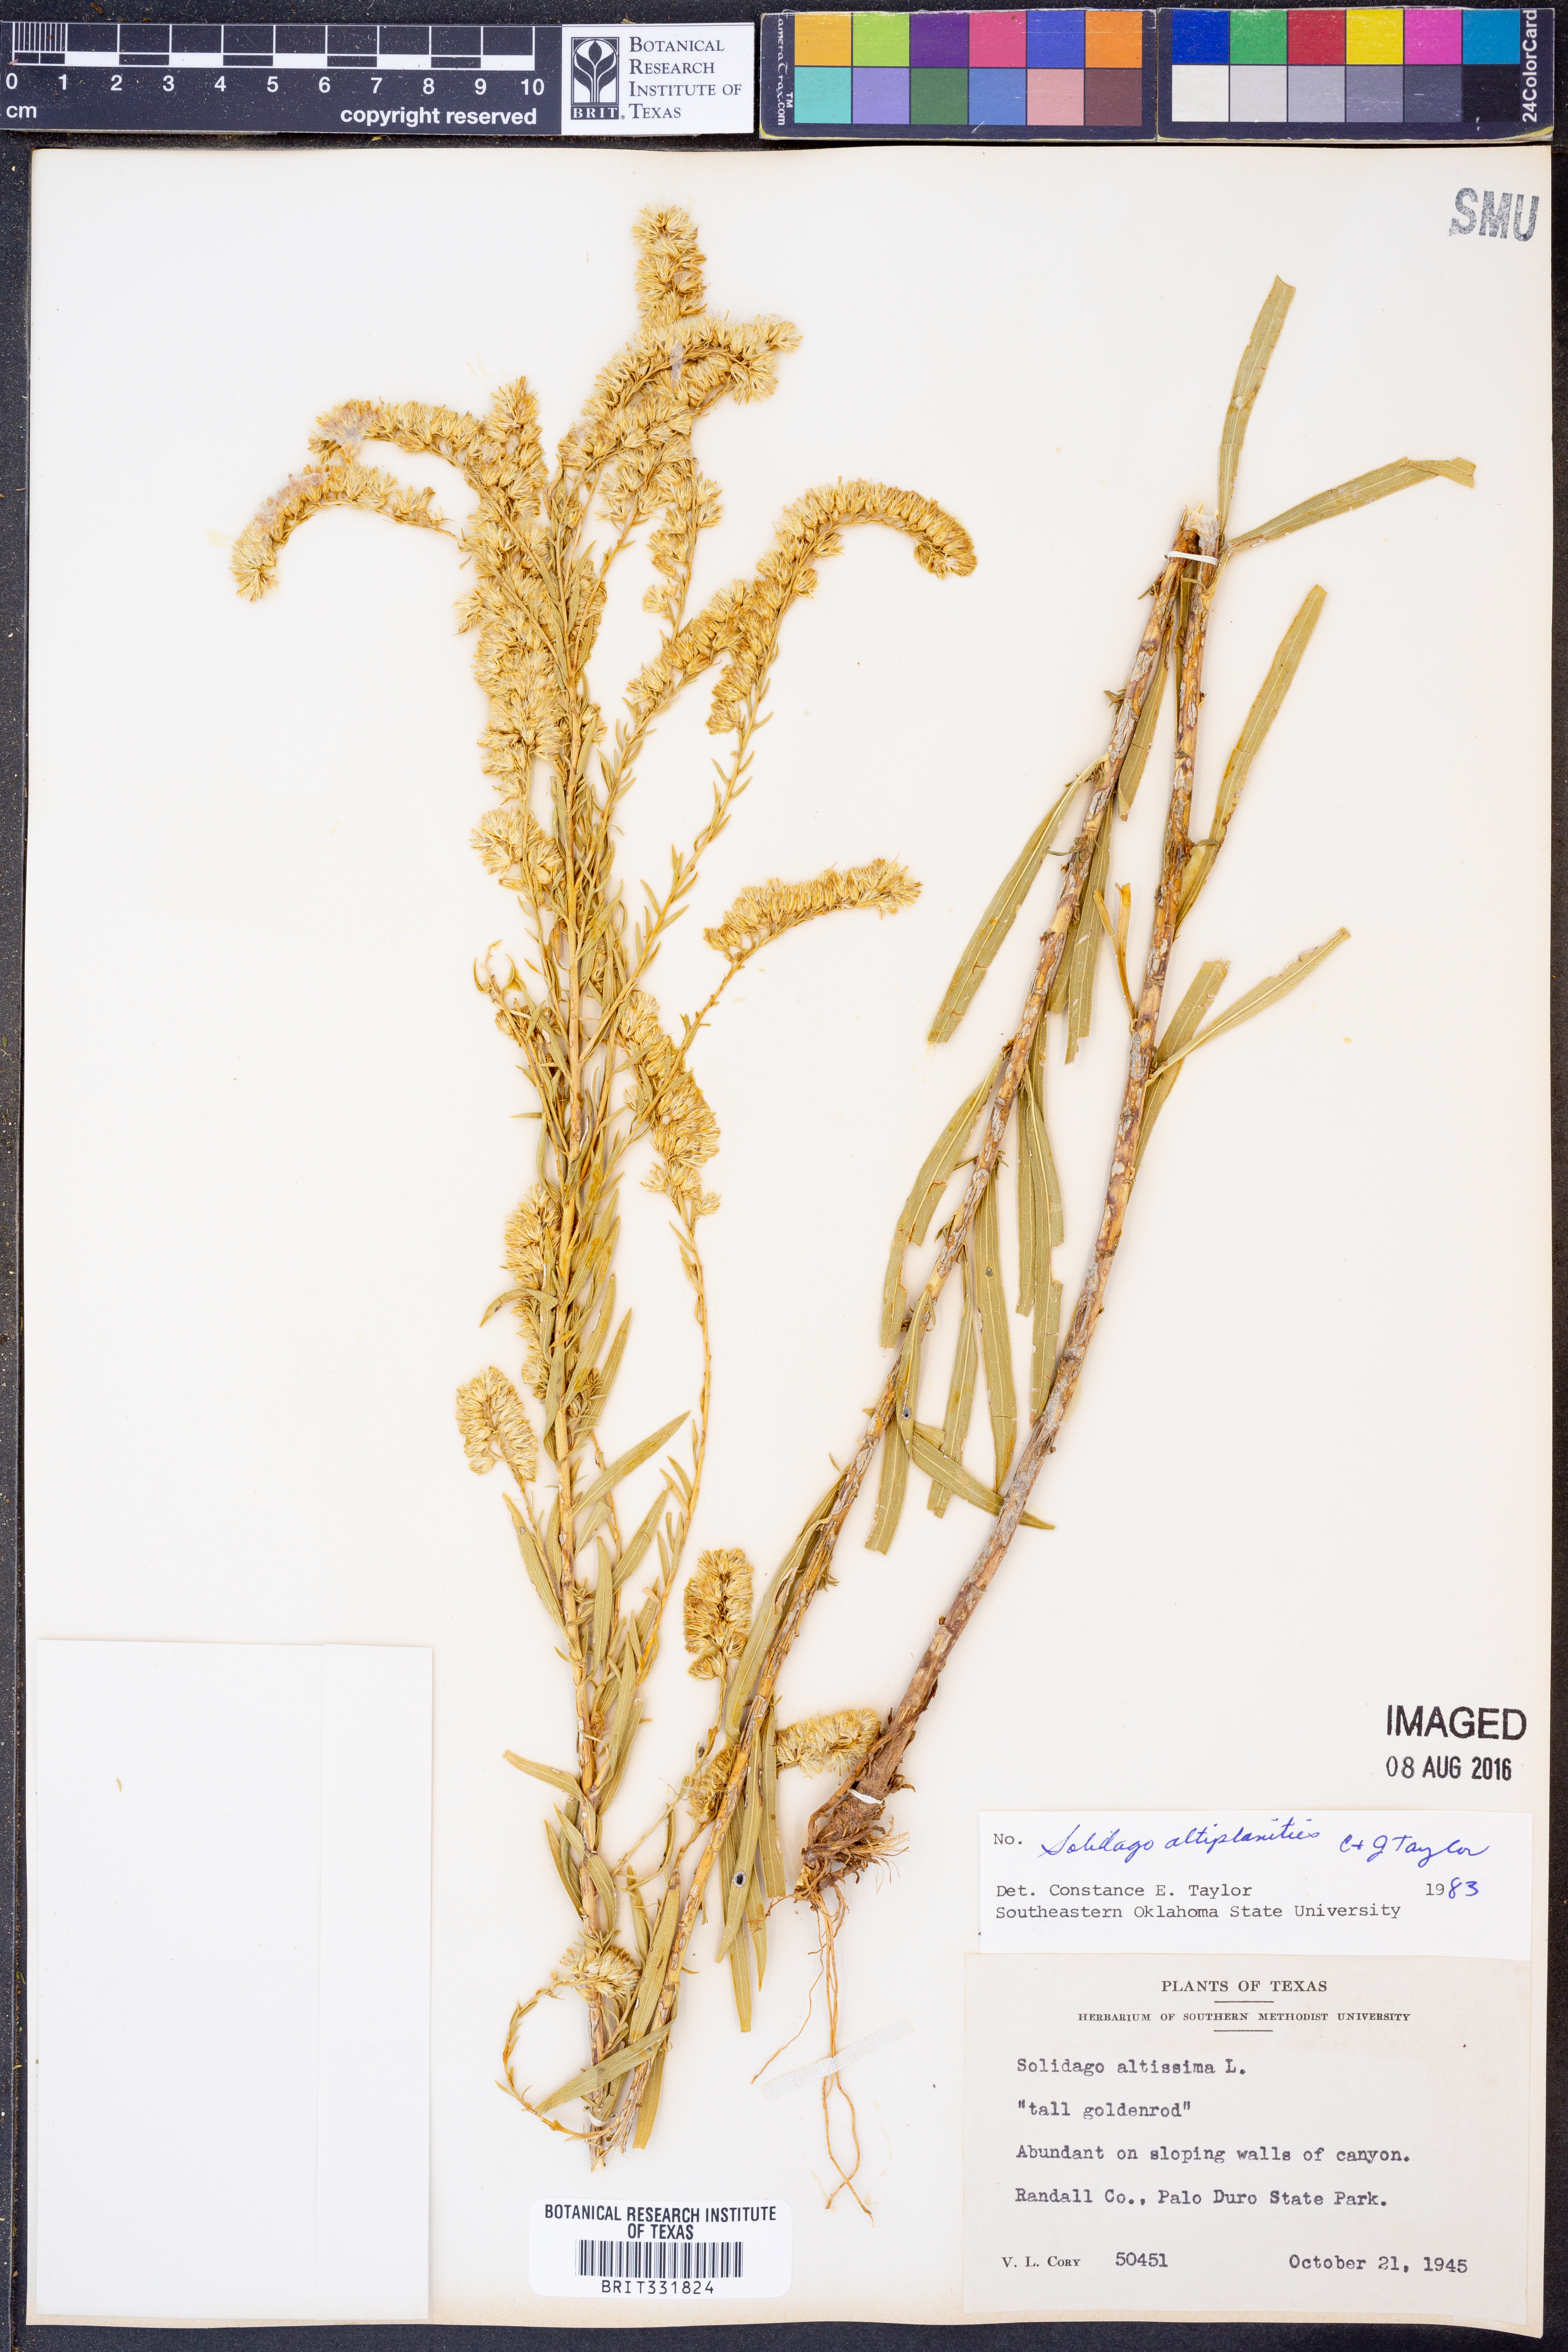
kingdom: Plantae
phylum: Tracheophyta
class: Magnoliopsida
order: Asterales
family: Asteraceae
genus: Solidago
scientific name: Solidago altiplanities
